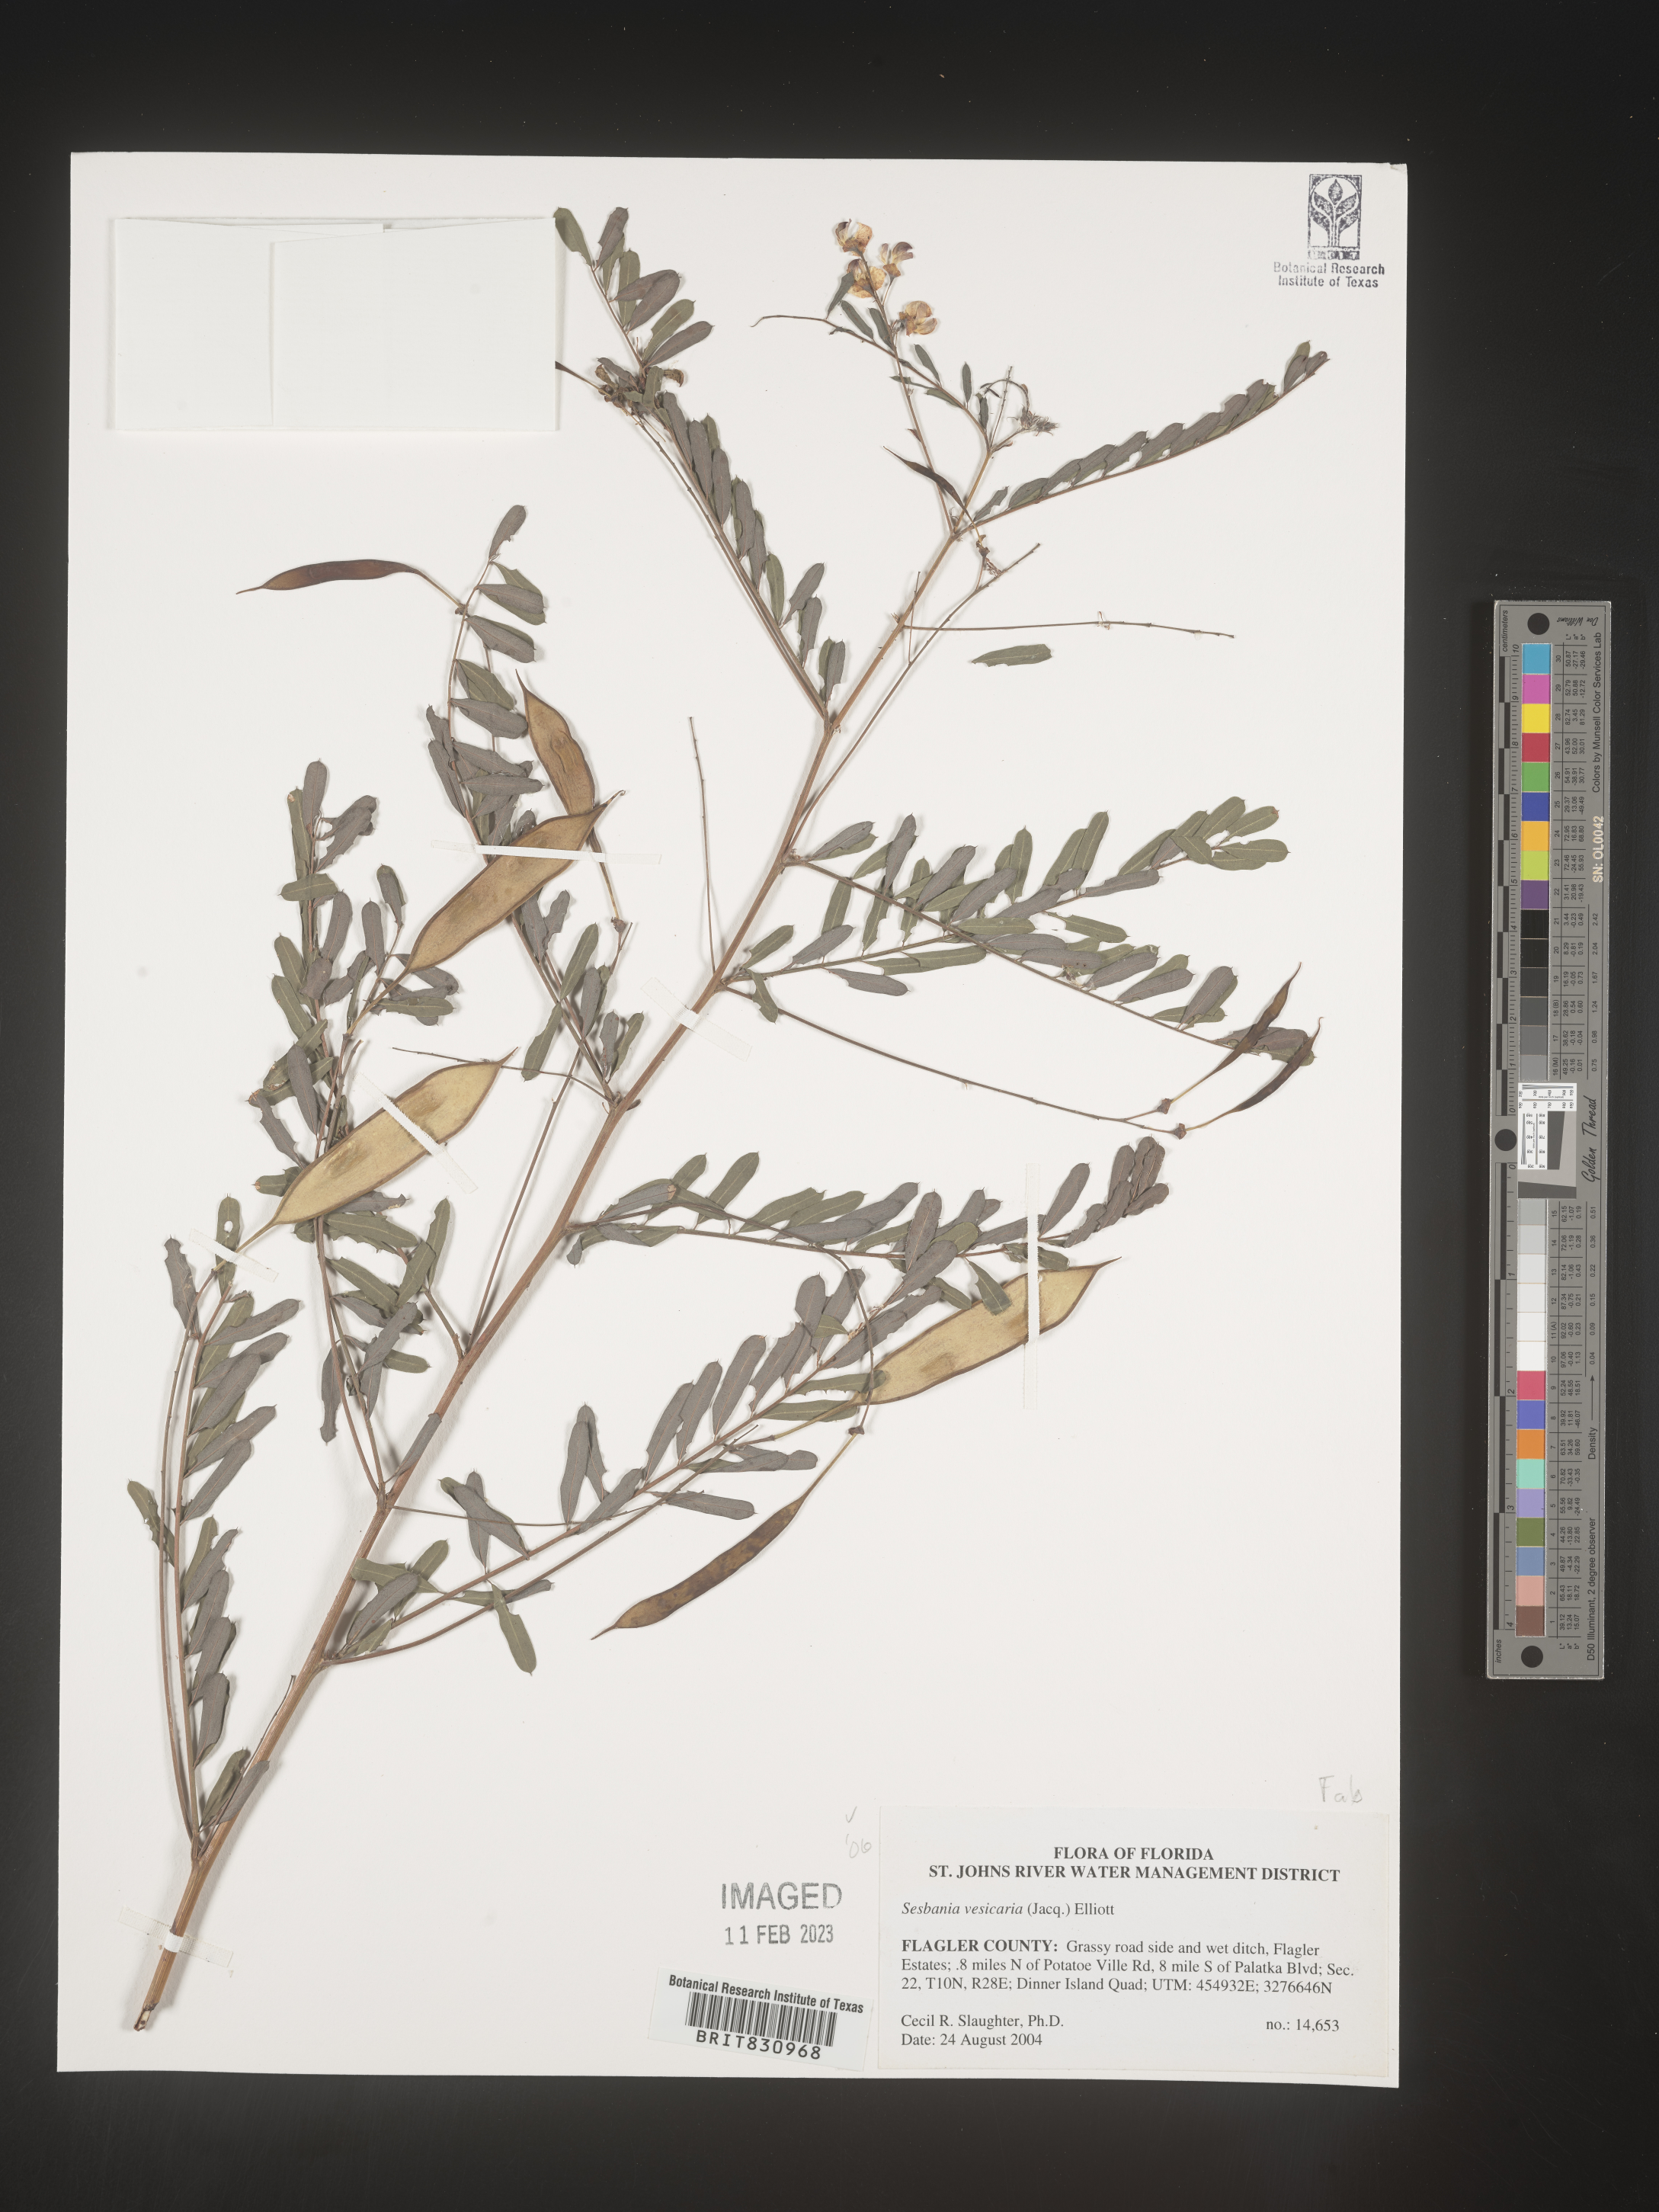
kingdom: Plantae
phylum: Tracheophyta
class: Magnoliopsida
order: Fabales
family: Fabaceae
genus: Sesbania
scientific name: Sesbania vesicaria
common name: Bagpod
